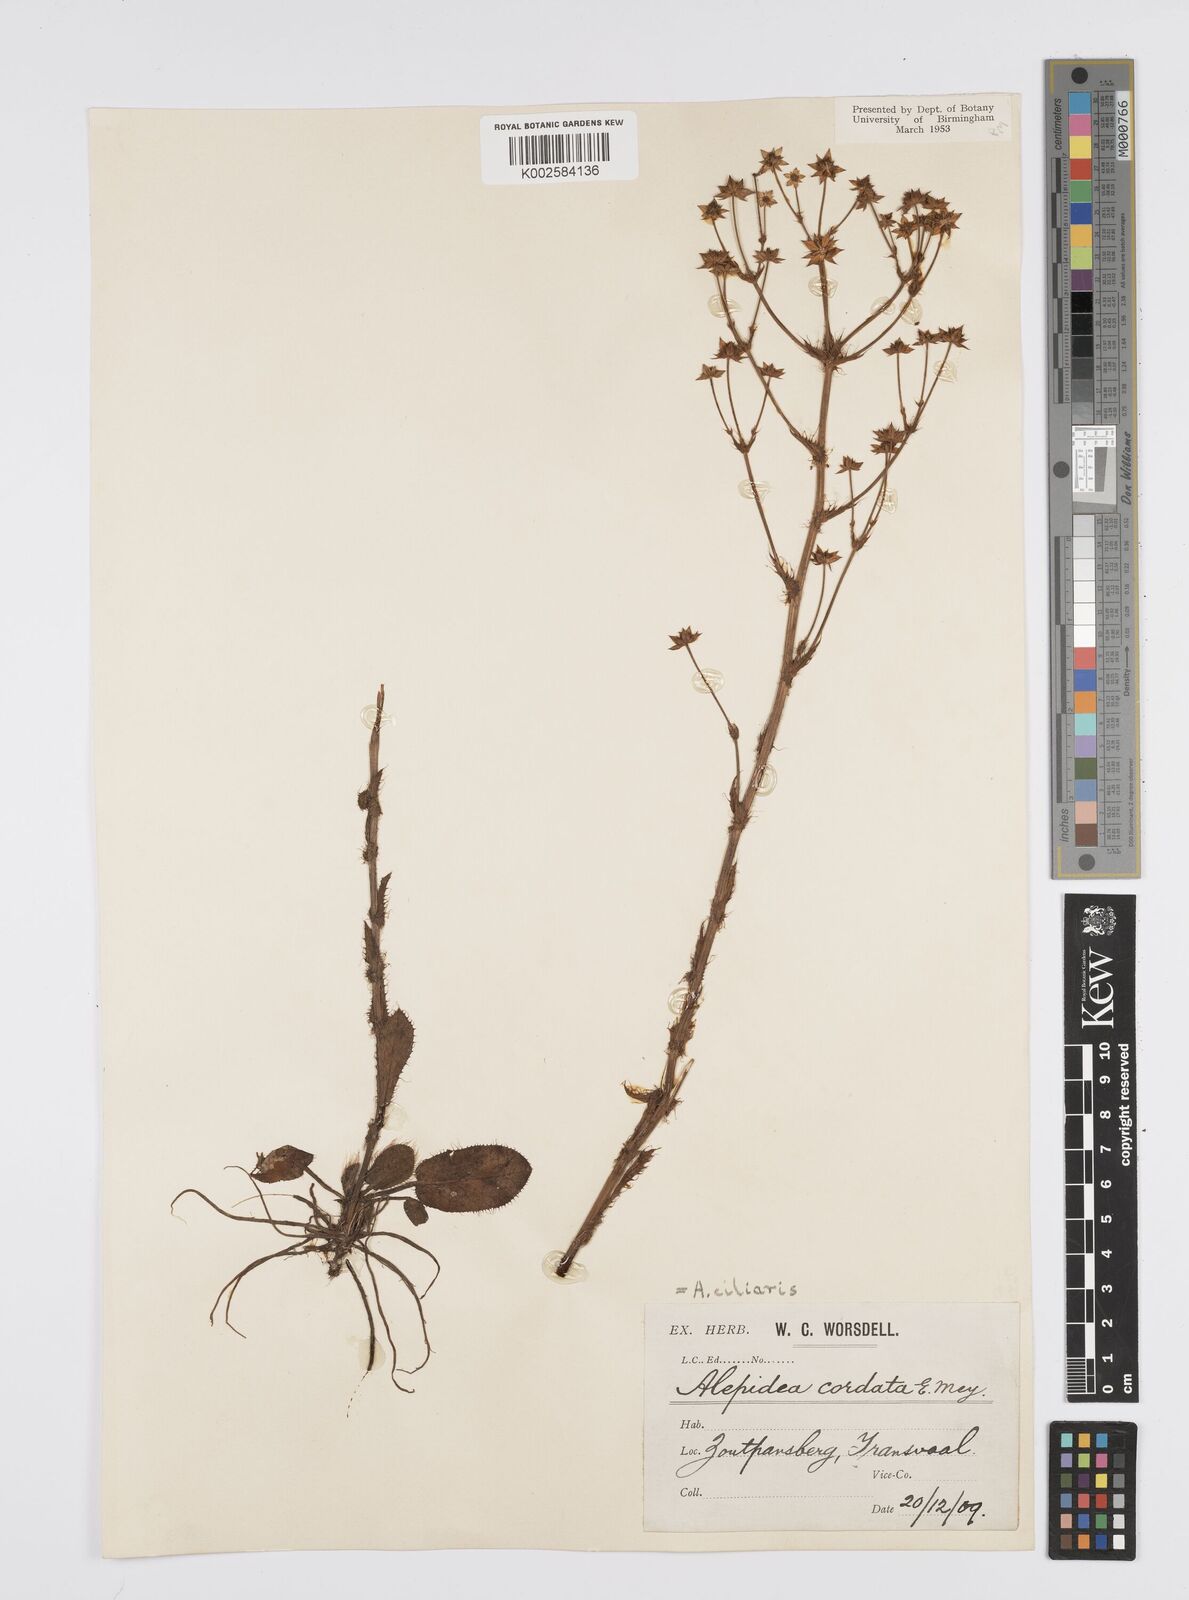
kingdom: Plantae
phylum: Tracheophyta
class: Magnoliopsida
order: Apiales
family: Apiaceae
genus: Alepidea
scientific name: Alepidea setifera
